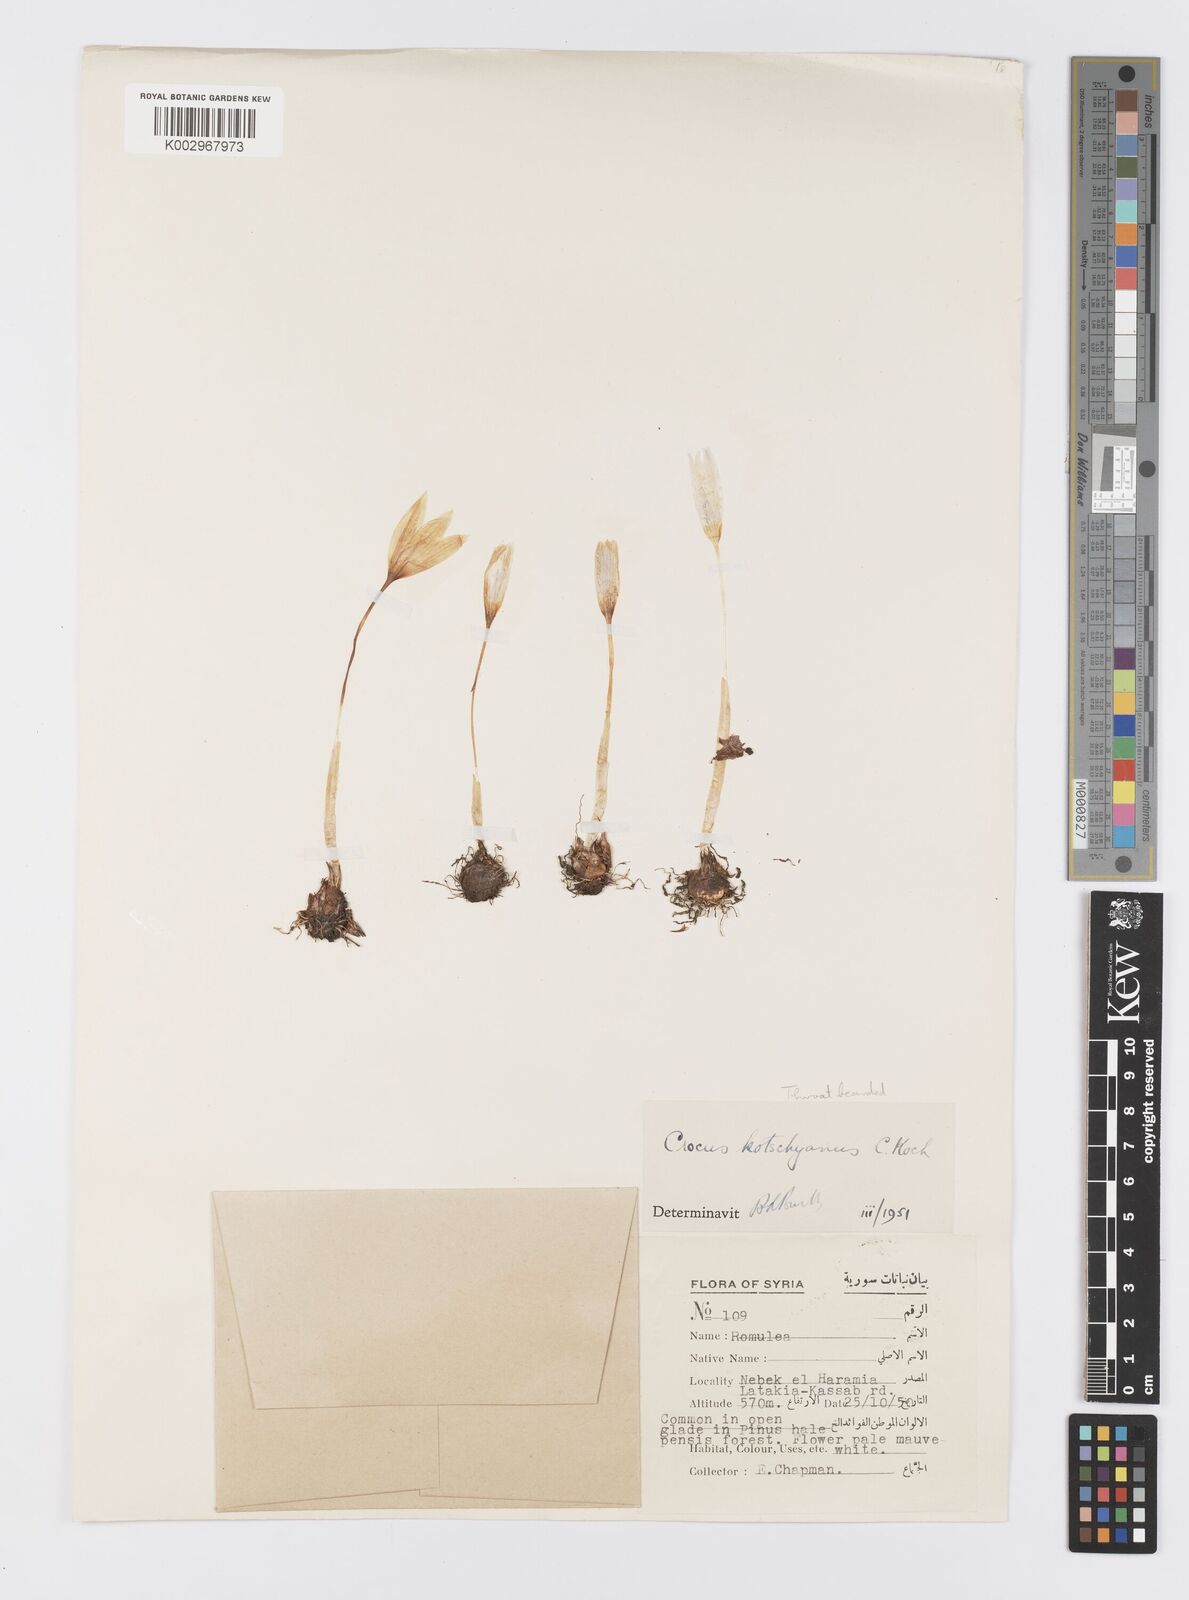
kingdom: Plantae
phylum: Tracheophyta
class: Liliopsida
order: Asparagales
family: Iridaceae
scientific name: Iridaceae
